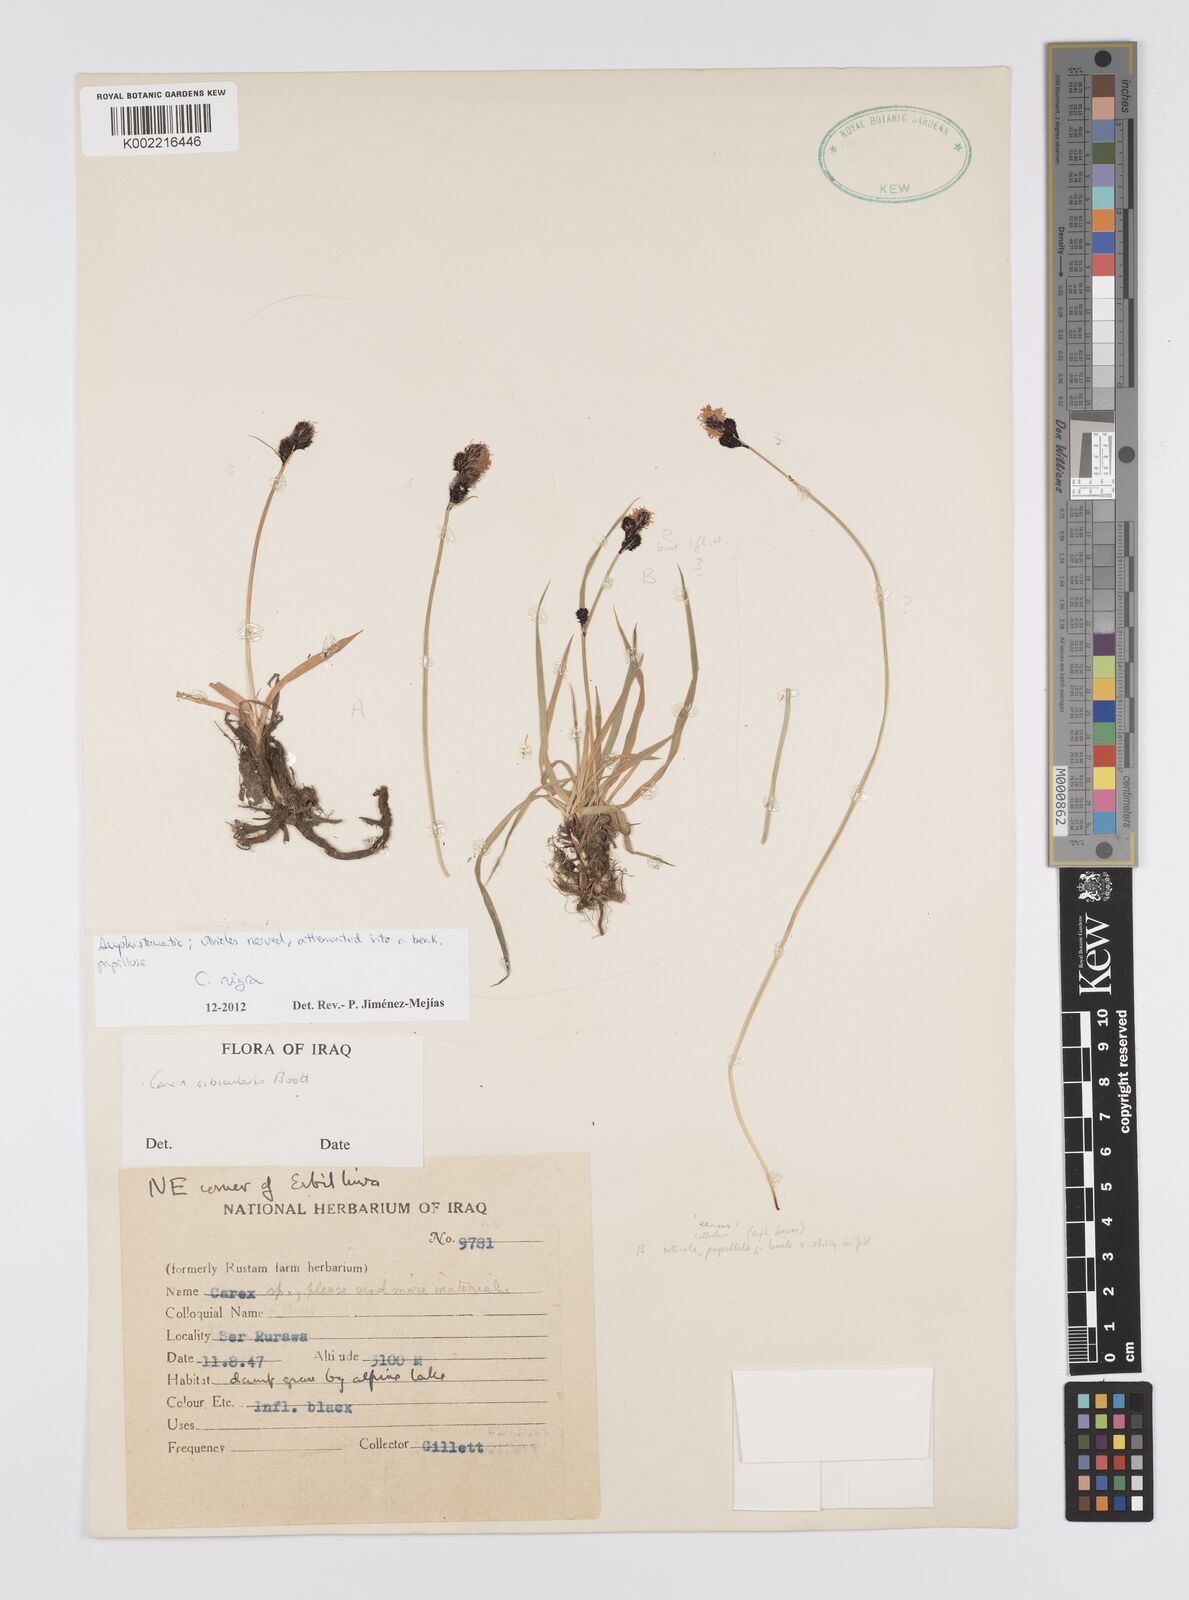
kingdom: Plantae
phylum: Tracheophyta
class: Liliopsida
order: Poales
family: Cyperaceae
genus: Carex
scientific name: Carex nigra
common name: Common sedge
